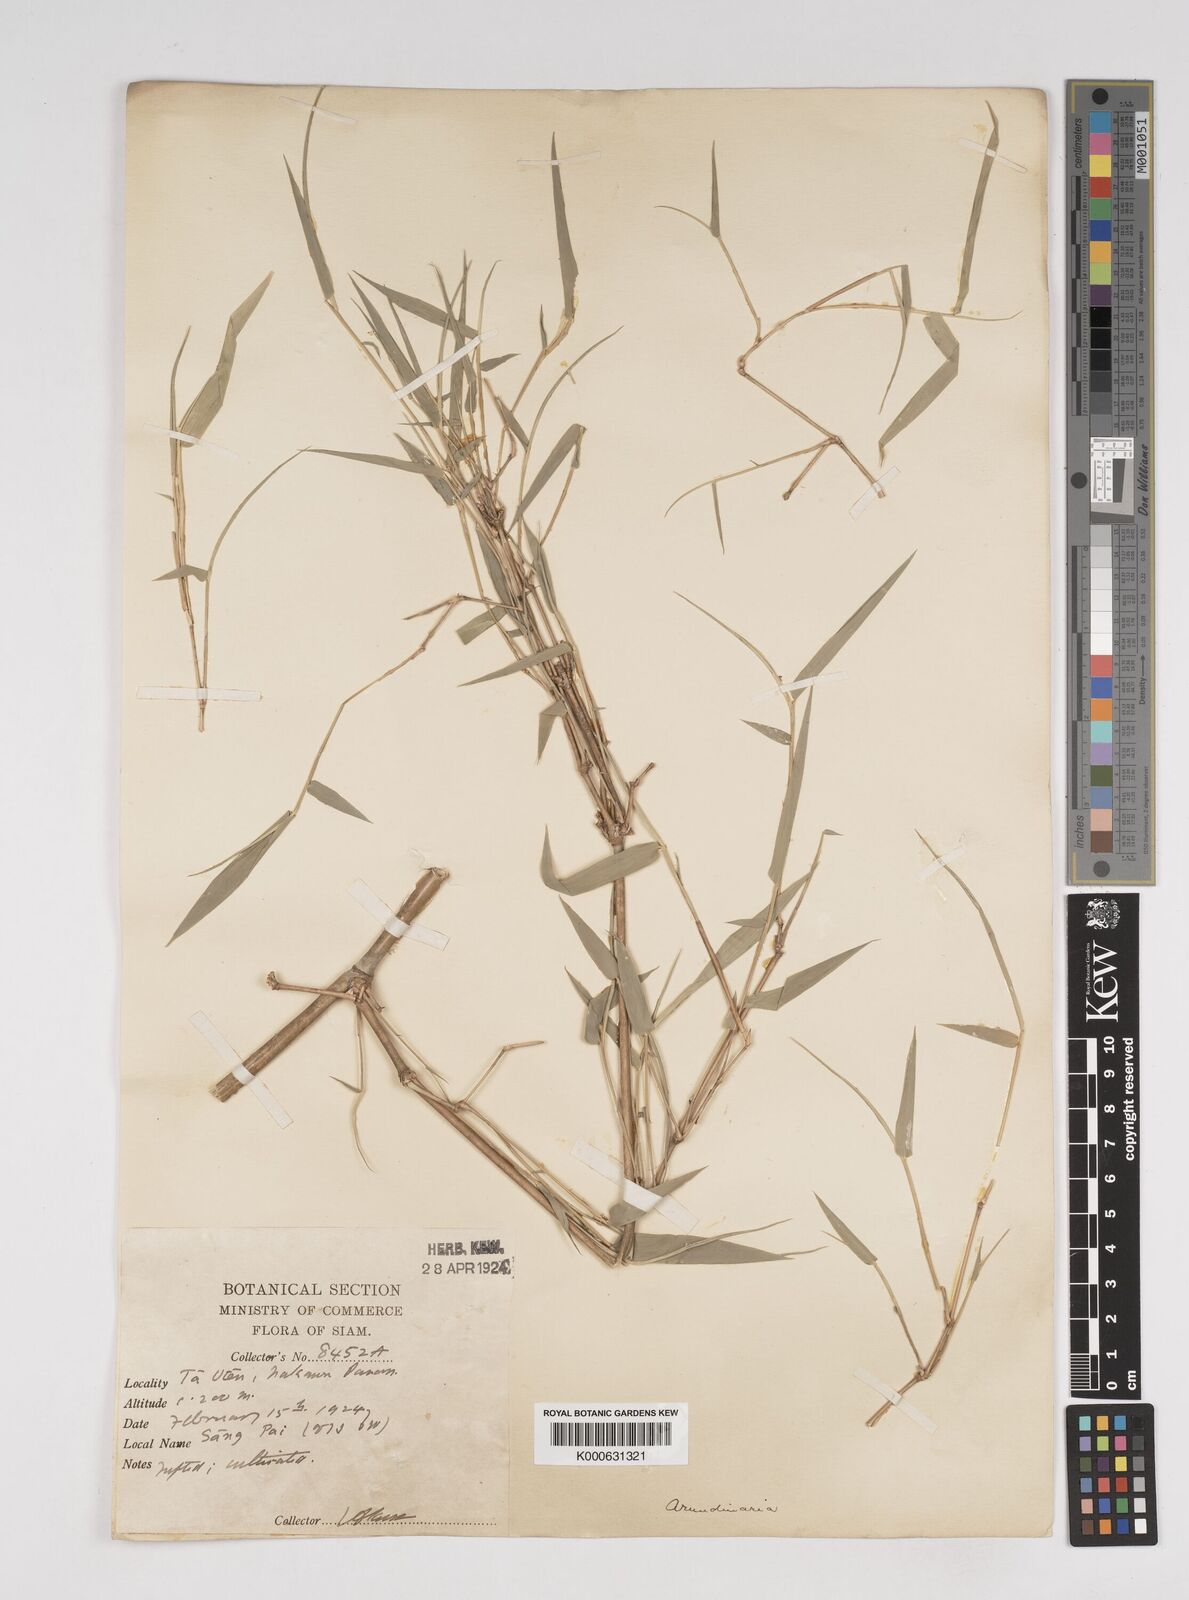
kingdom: Plantae
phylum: Tracheophyta
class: Liliopsida
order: Poales
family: Poaceae
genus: Dendrocalamus
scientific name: Dendrocalamus dumosus
